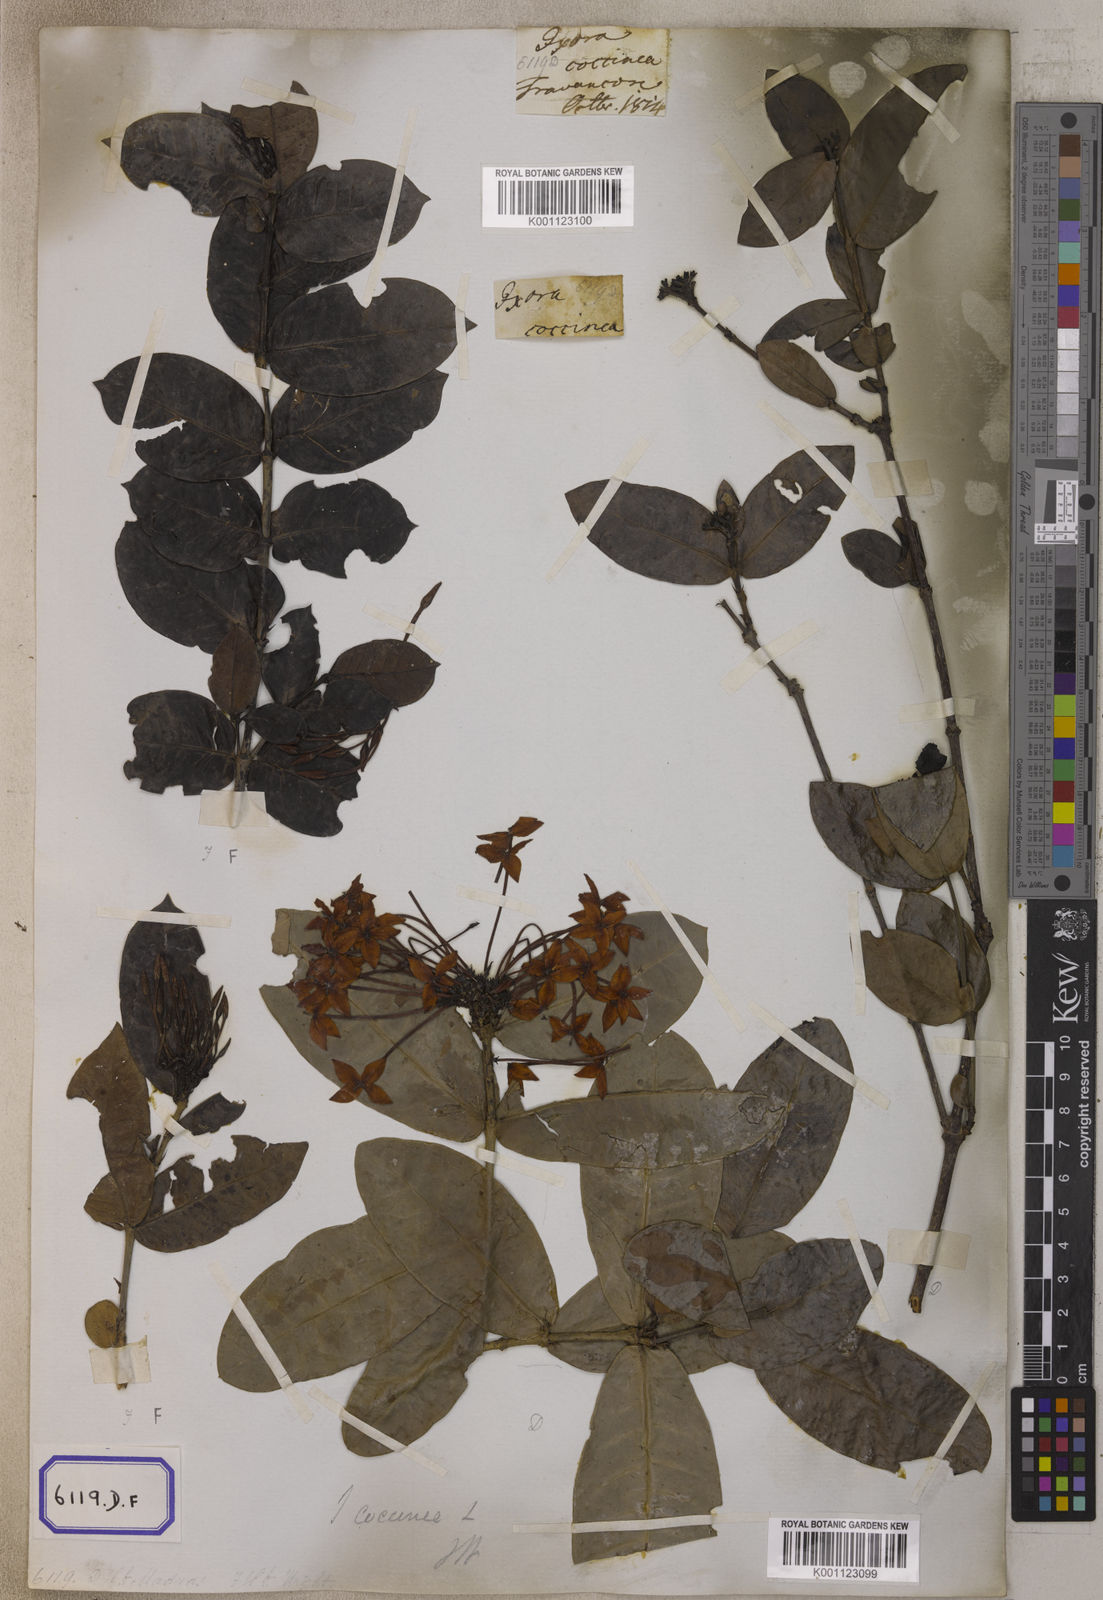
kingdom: Plantae
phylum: Tracheophyta
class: Magnoliopsida
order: Gentianales
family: Rubiaceae
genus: Ixora
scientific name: Ixora
